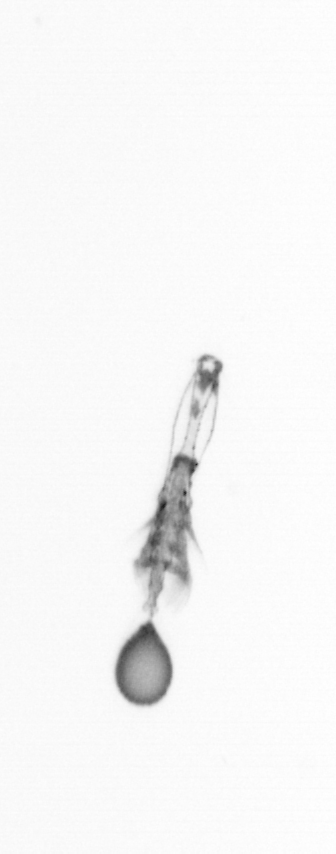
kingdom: Animalia
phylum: Arthropoda
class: Copepoda
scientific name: Copepoda
